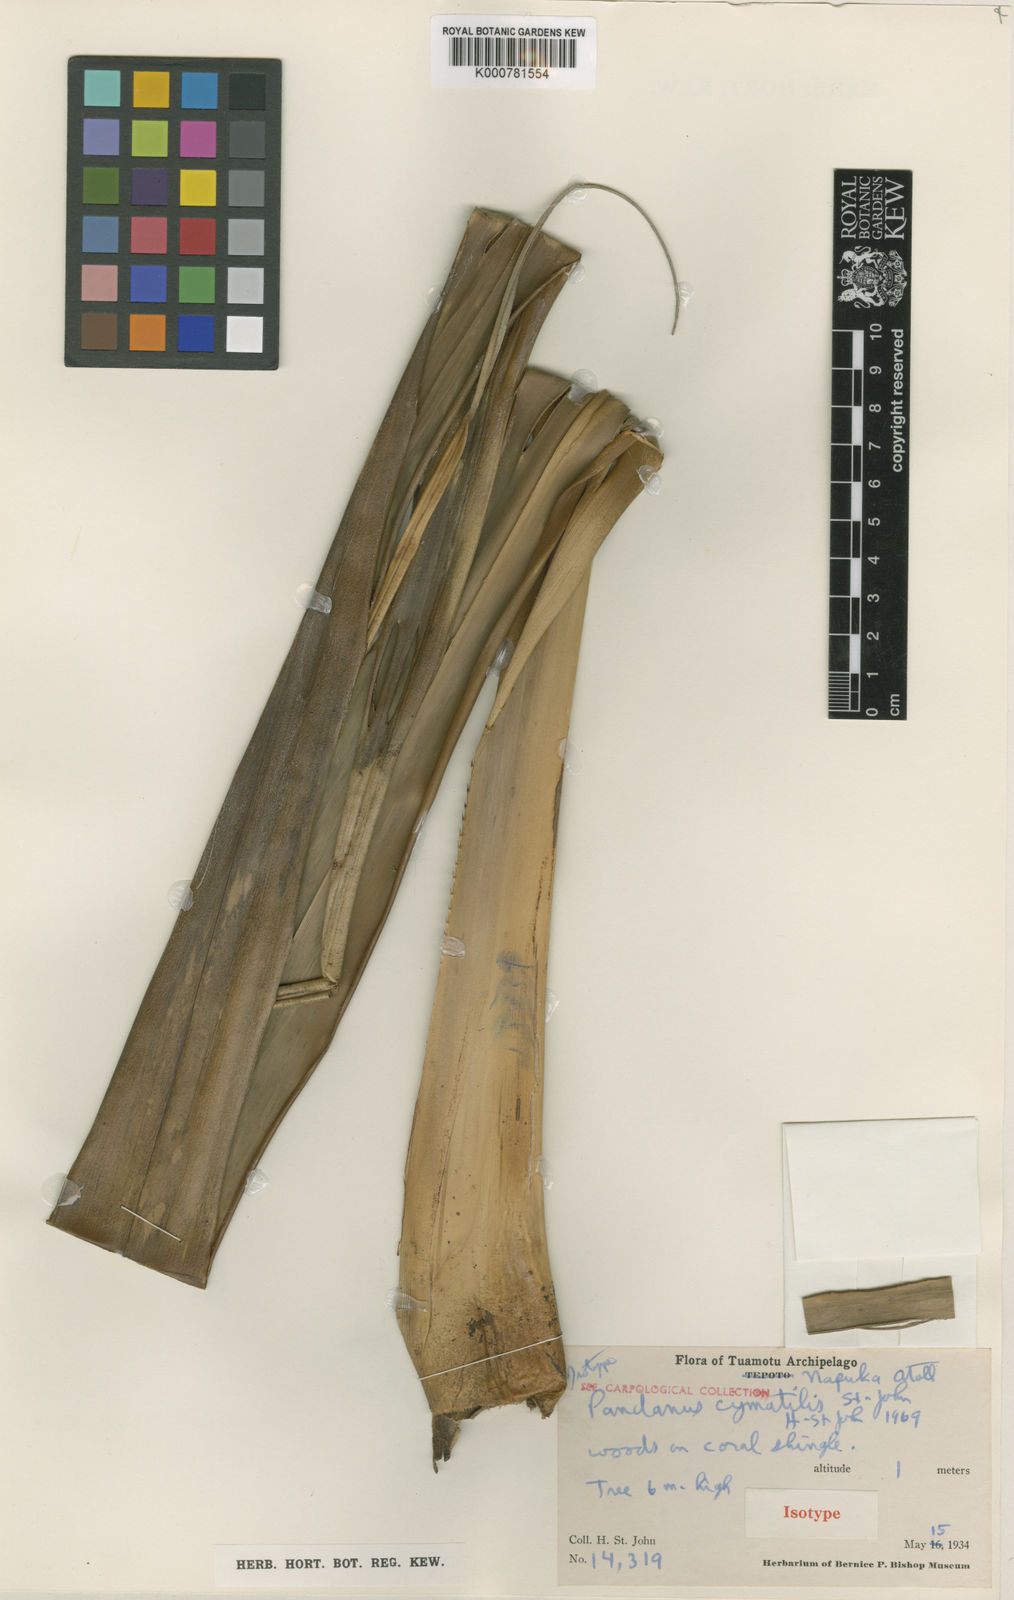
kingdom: Plantae
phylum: Tracheophyta
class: Liliopsida
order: Pandanales
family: Pandanaceae
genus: Pandanus
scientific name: Pandanus
